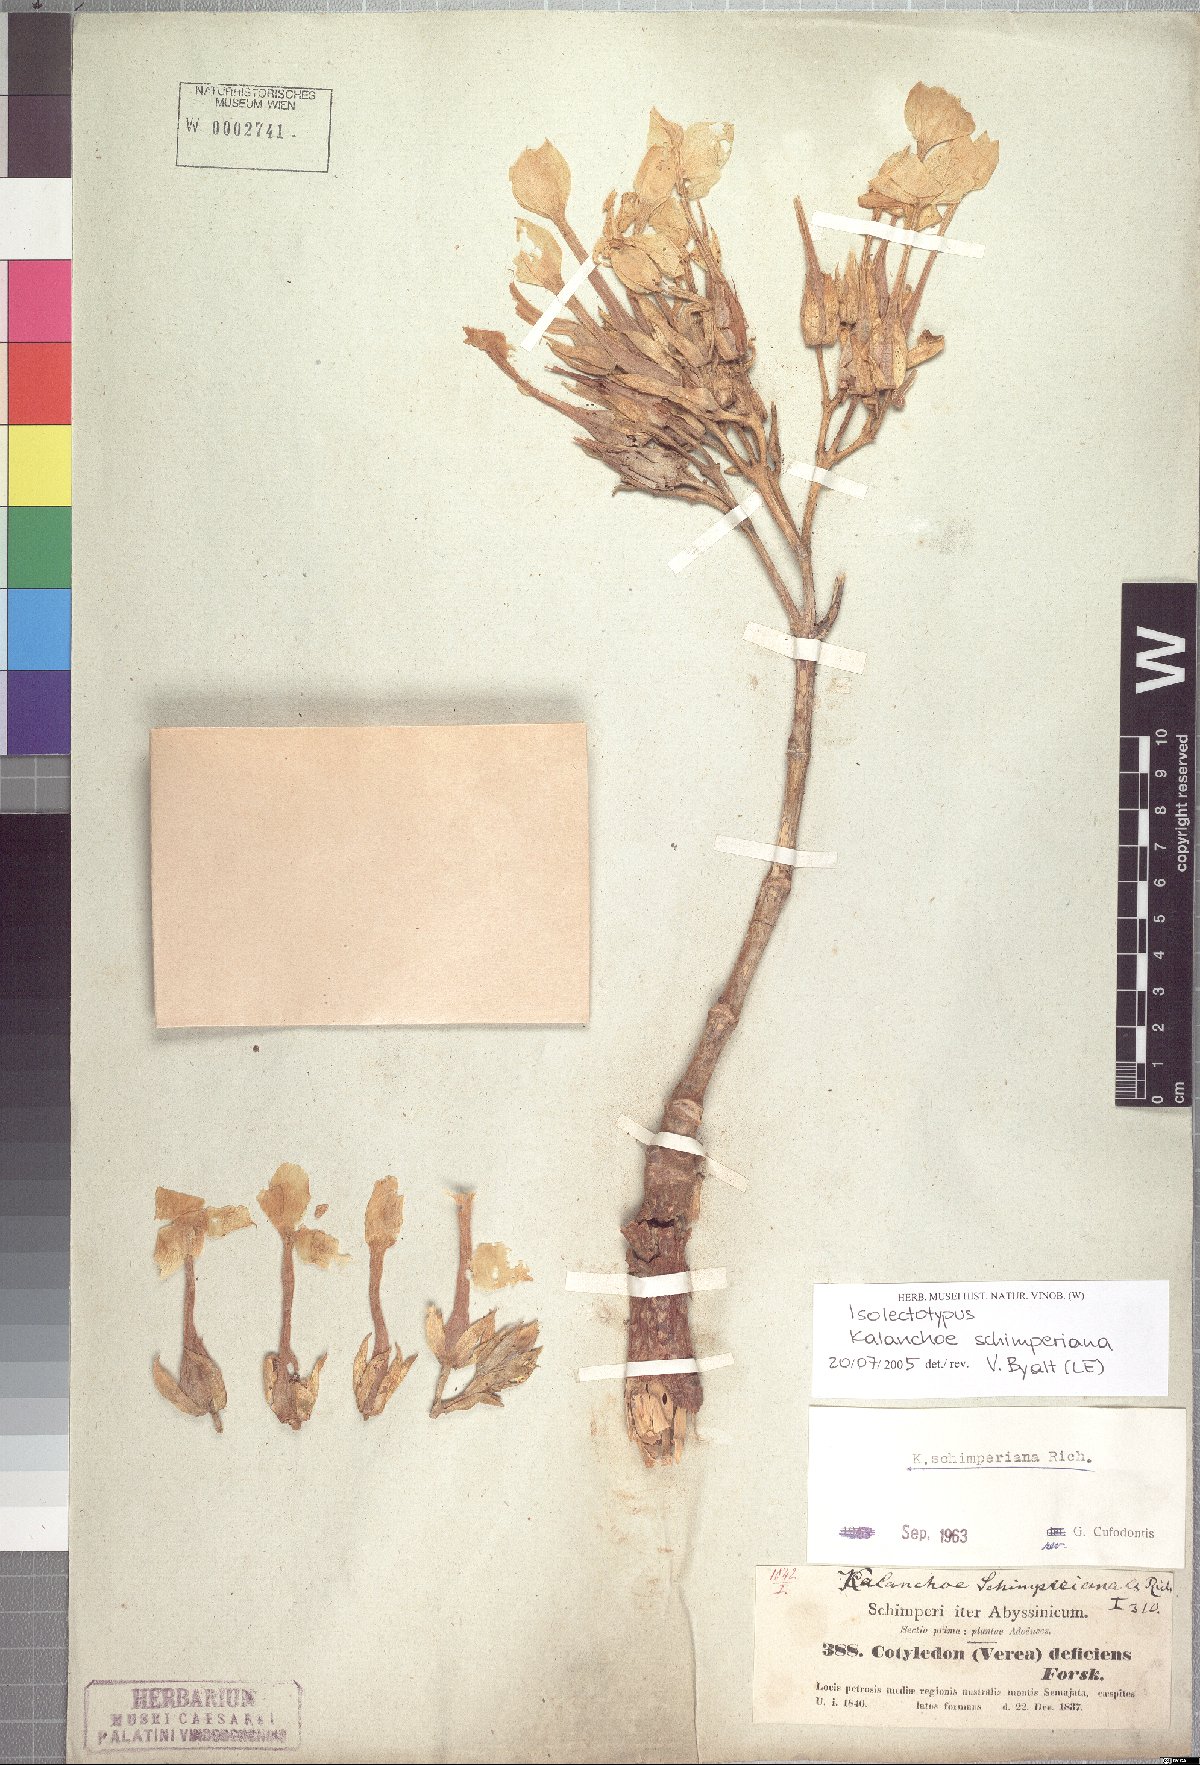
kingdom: Plantae
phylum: Tracheophyta
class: Magnoliopsida
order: Saxifragales
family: Crassulaceae
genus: Kalanchoe
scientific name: Kalanchoe schimperiana
